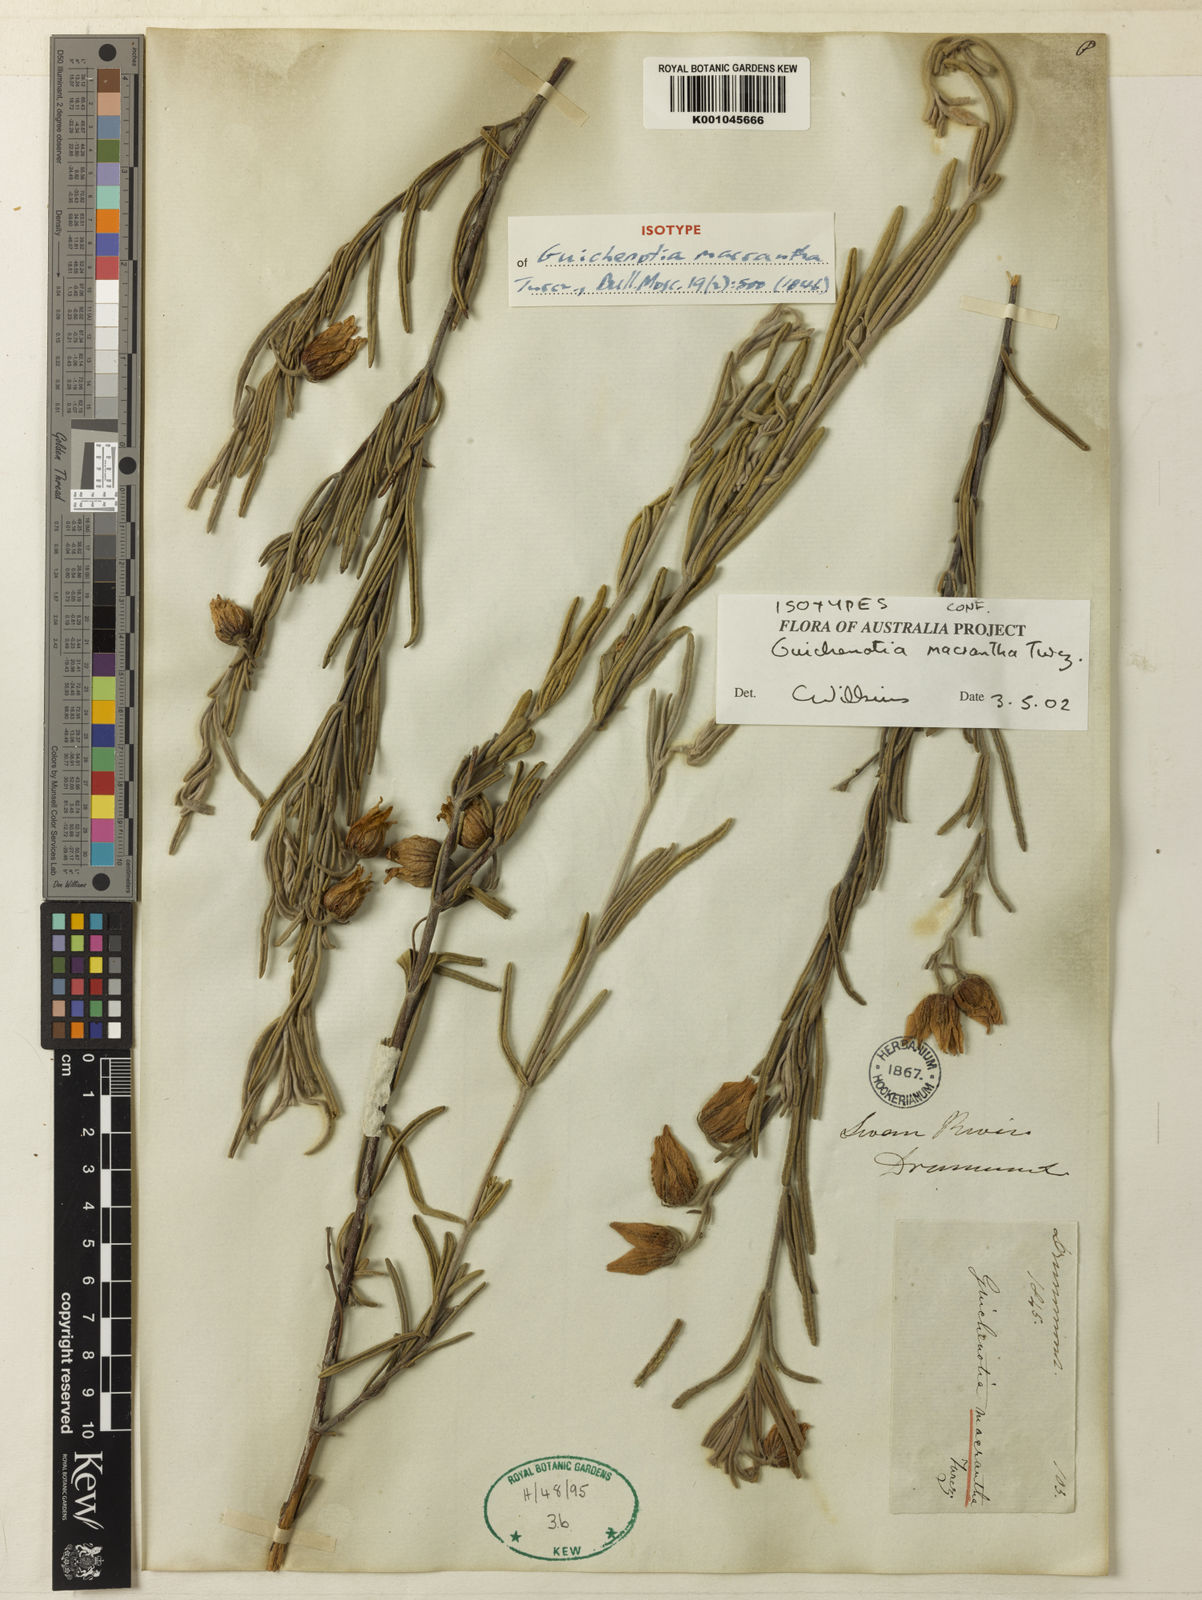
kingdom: Plantae
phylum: Tracheophyta
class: Magnoliopsida
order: Malvales
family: Malvaceae
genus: Guichenotia
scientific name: Guichenotia macrantha
